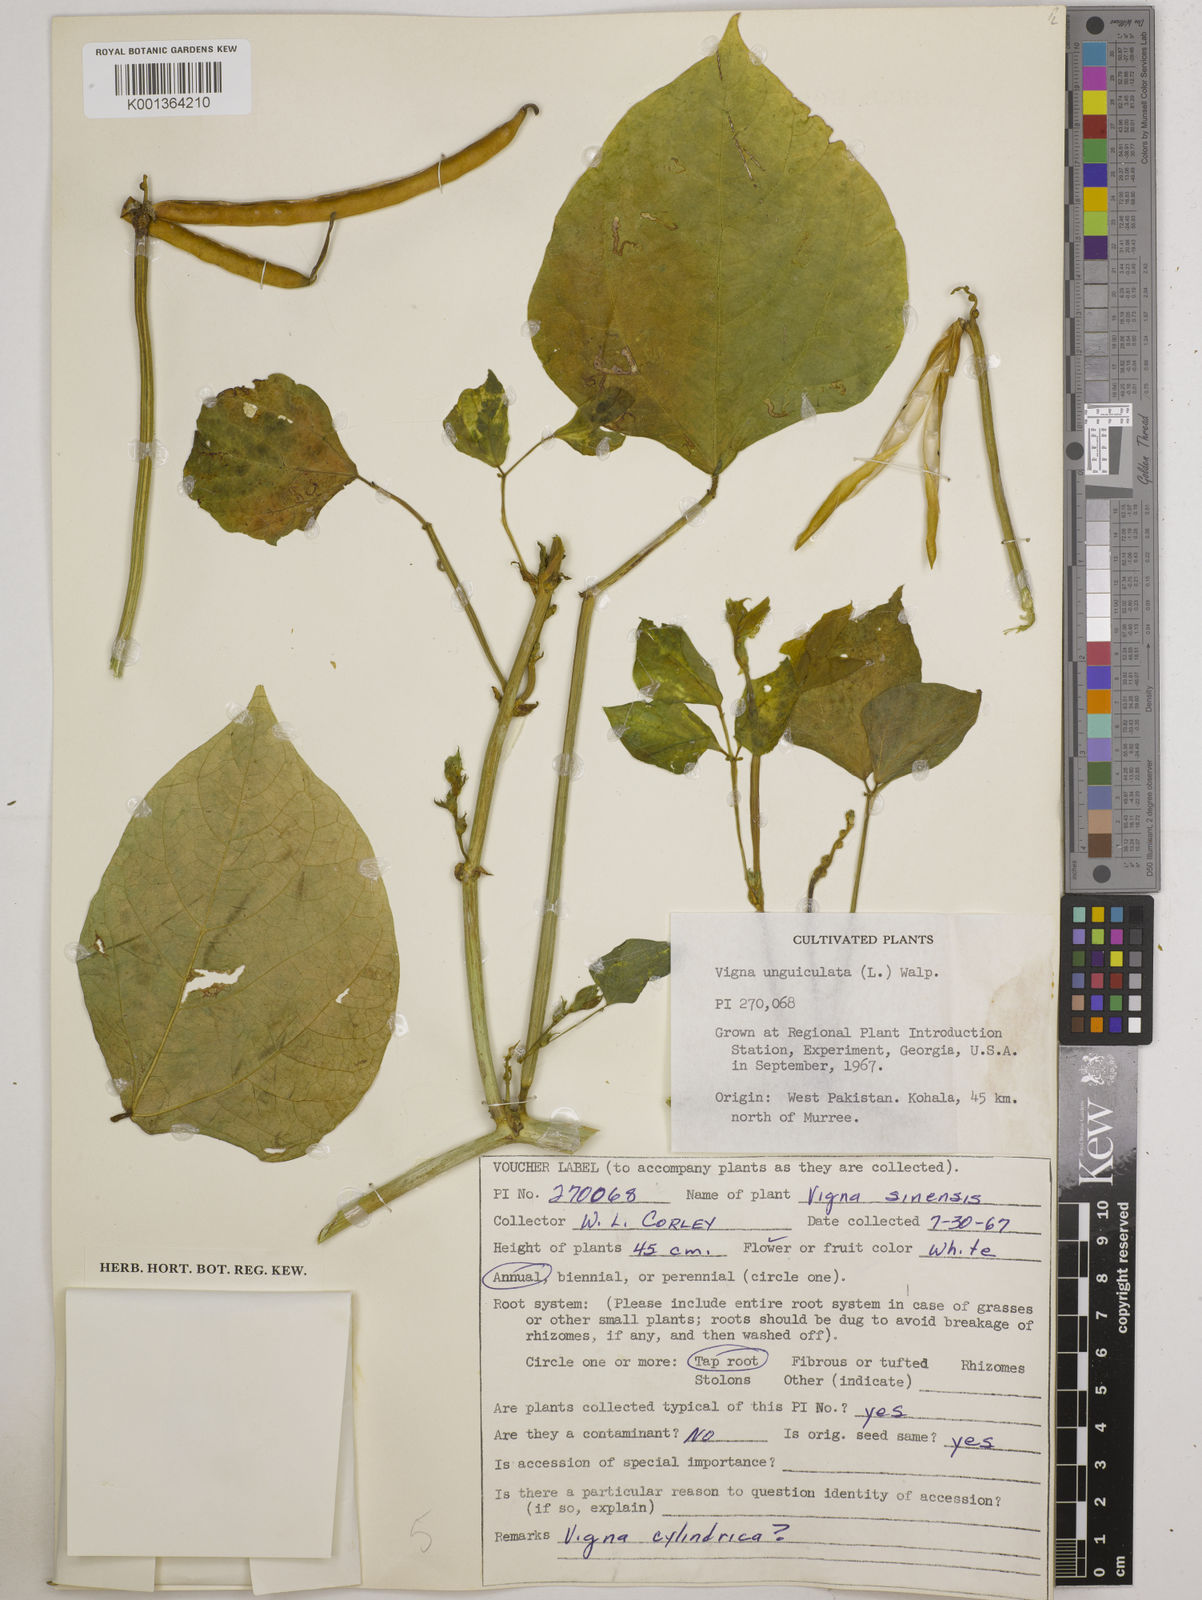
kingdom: Plantae
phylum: Tracheophyta
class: Magnoliopsida
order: Fabales
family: Fabaceae
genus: Vigna
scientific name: Vigna
